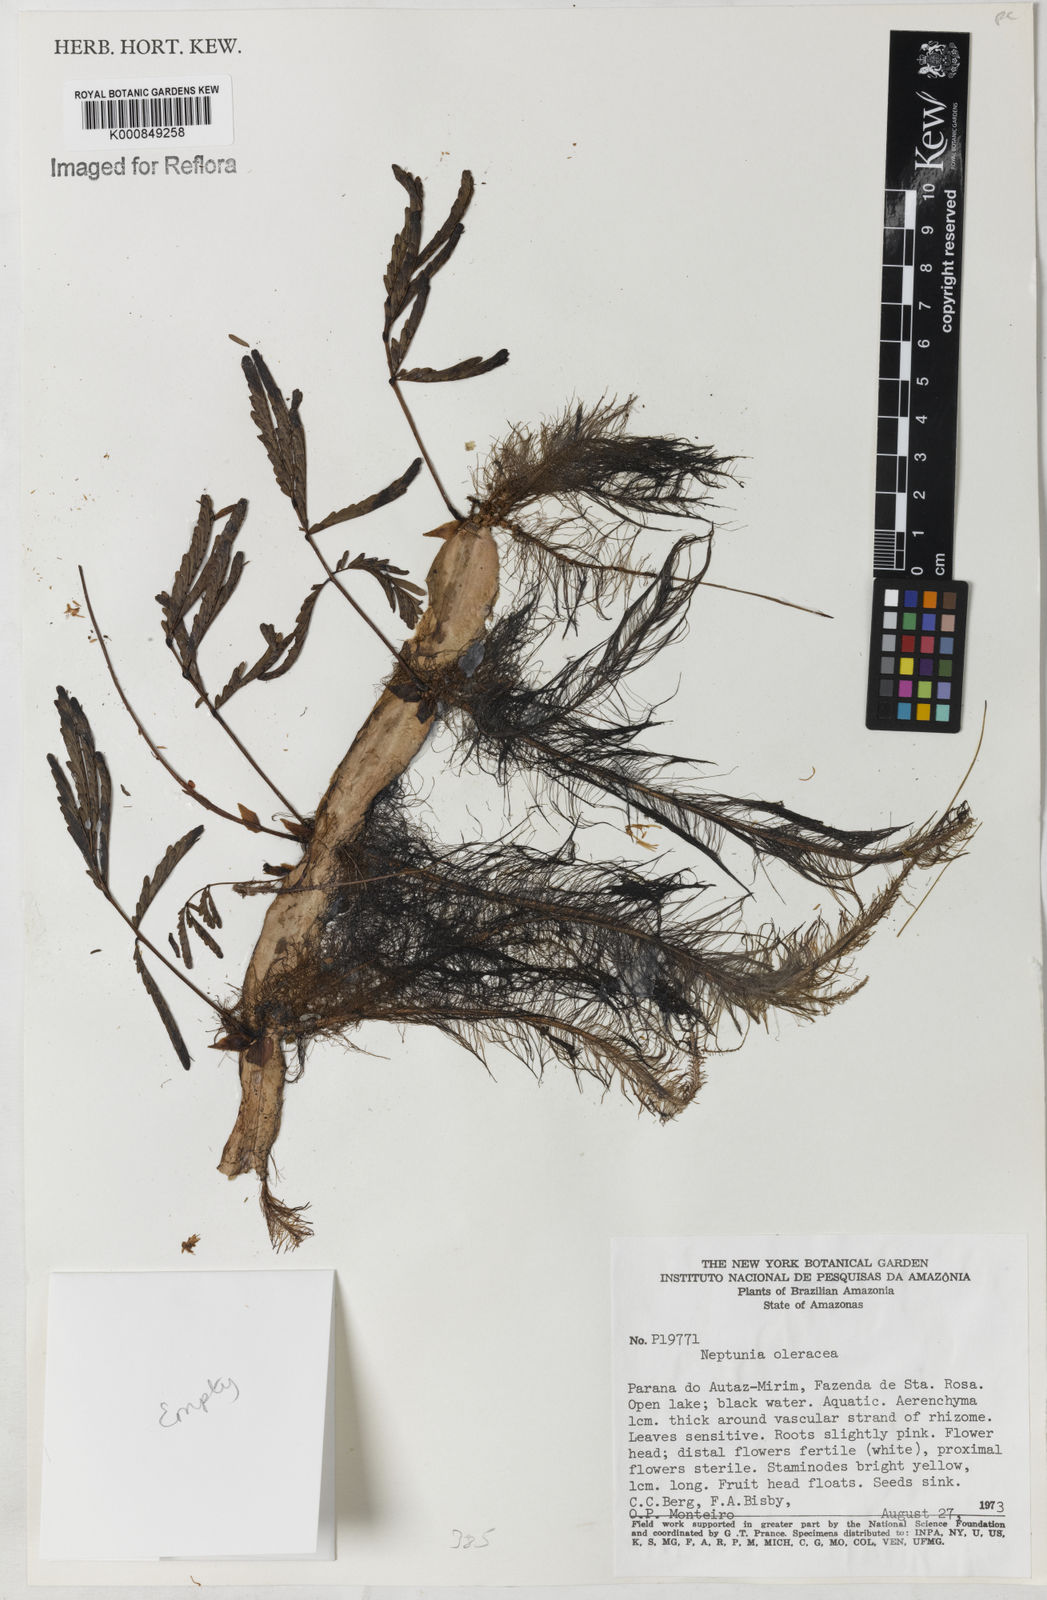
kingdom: Plantae
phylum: Tracheophyta
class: Magnoliopsida
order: Fabales
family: Fabaceae
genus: Neptunia
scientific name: Neptunia prostrata
